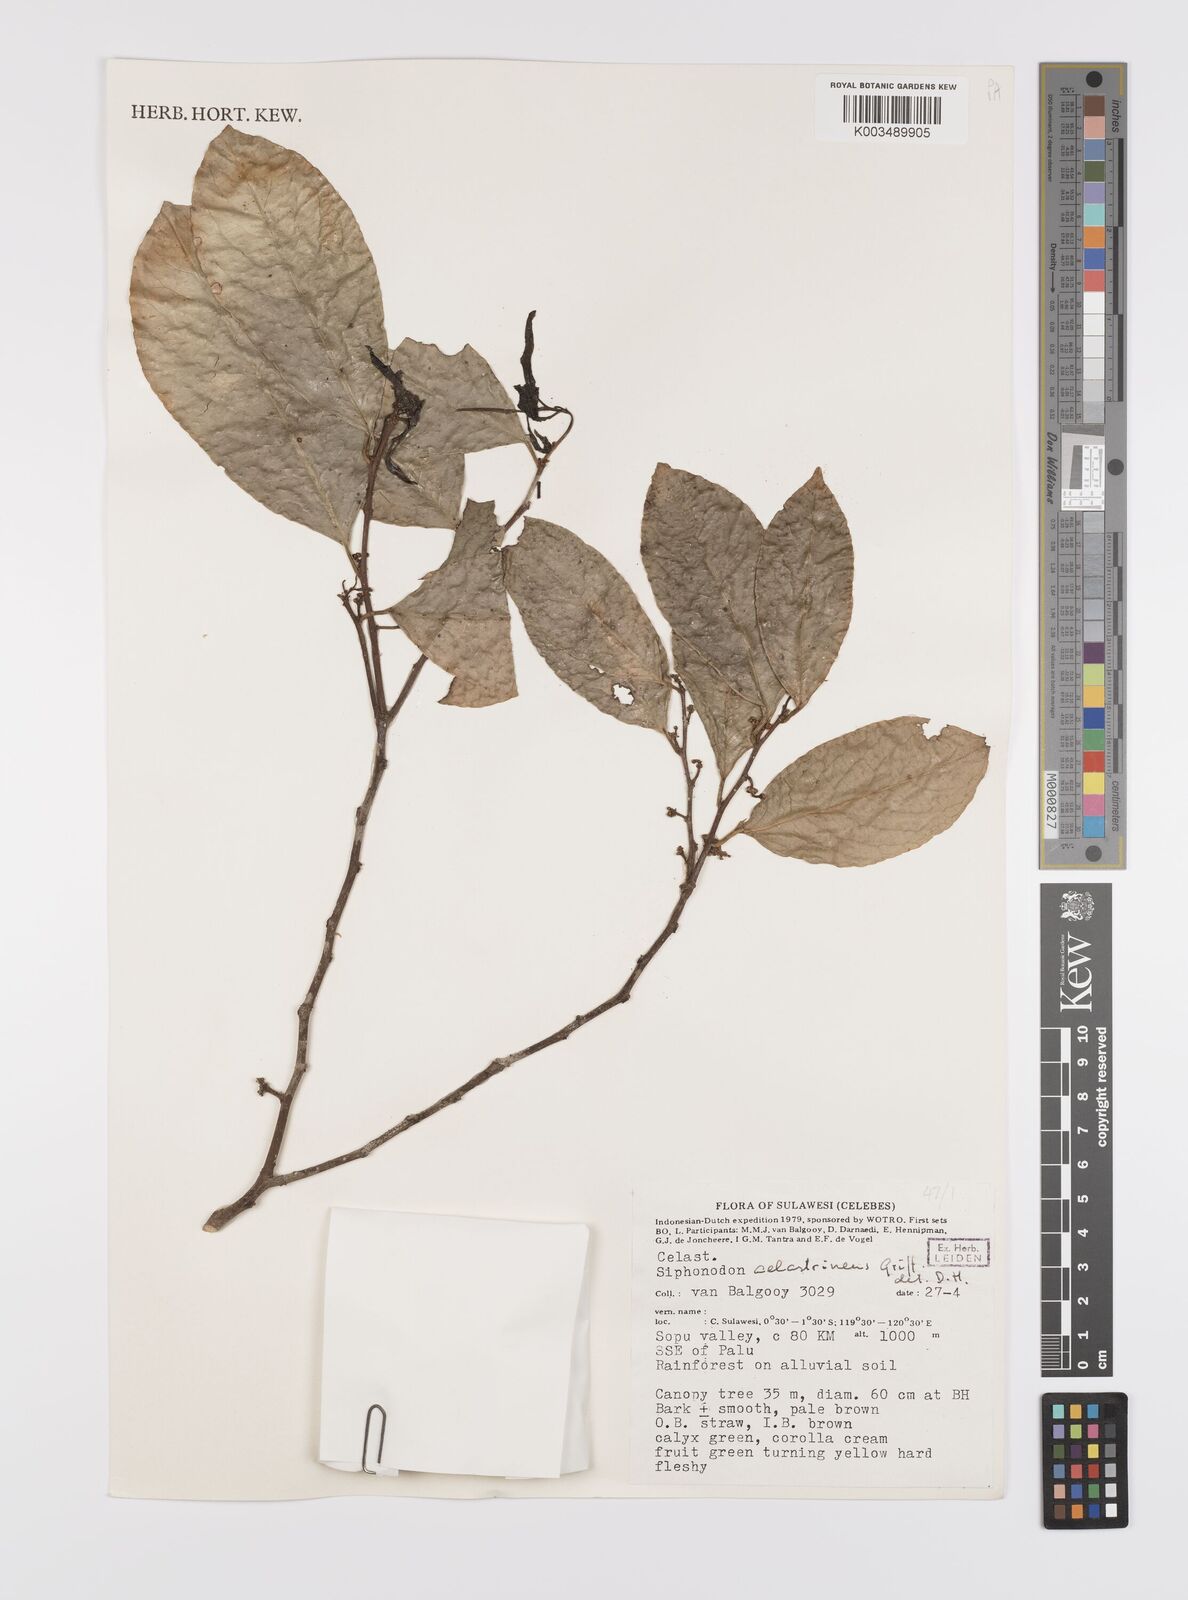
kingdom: Plantae
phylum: Tracheophyta
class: Magnoliopsida
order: Celastrales
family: Celastraceae
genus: Siphonodon
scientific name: Siphonodon celastrineus
